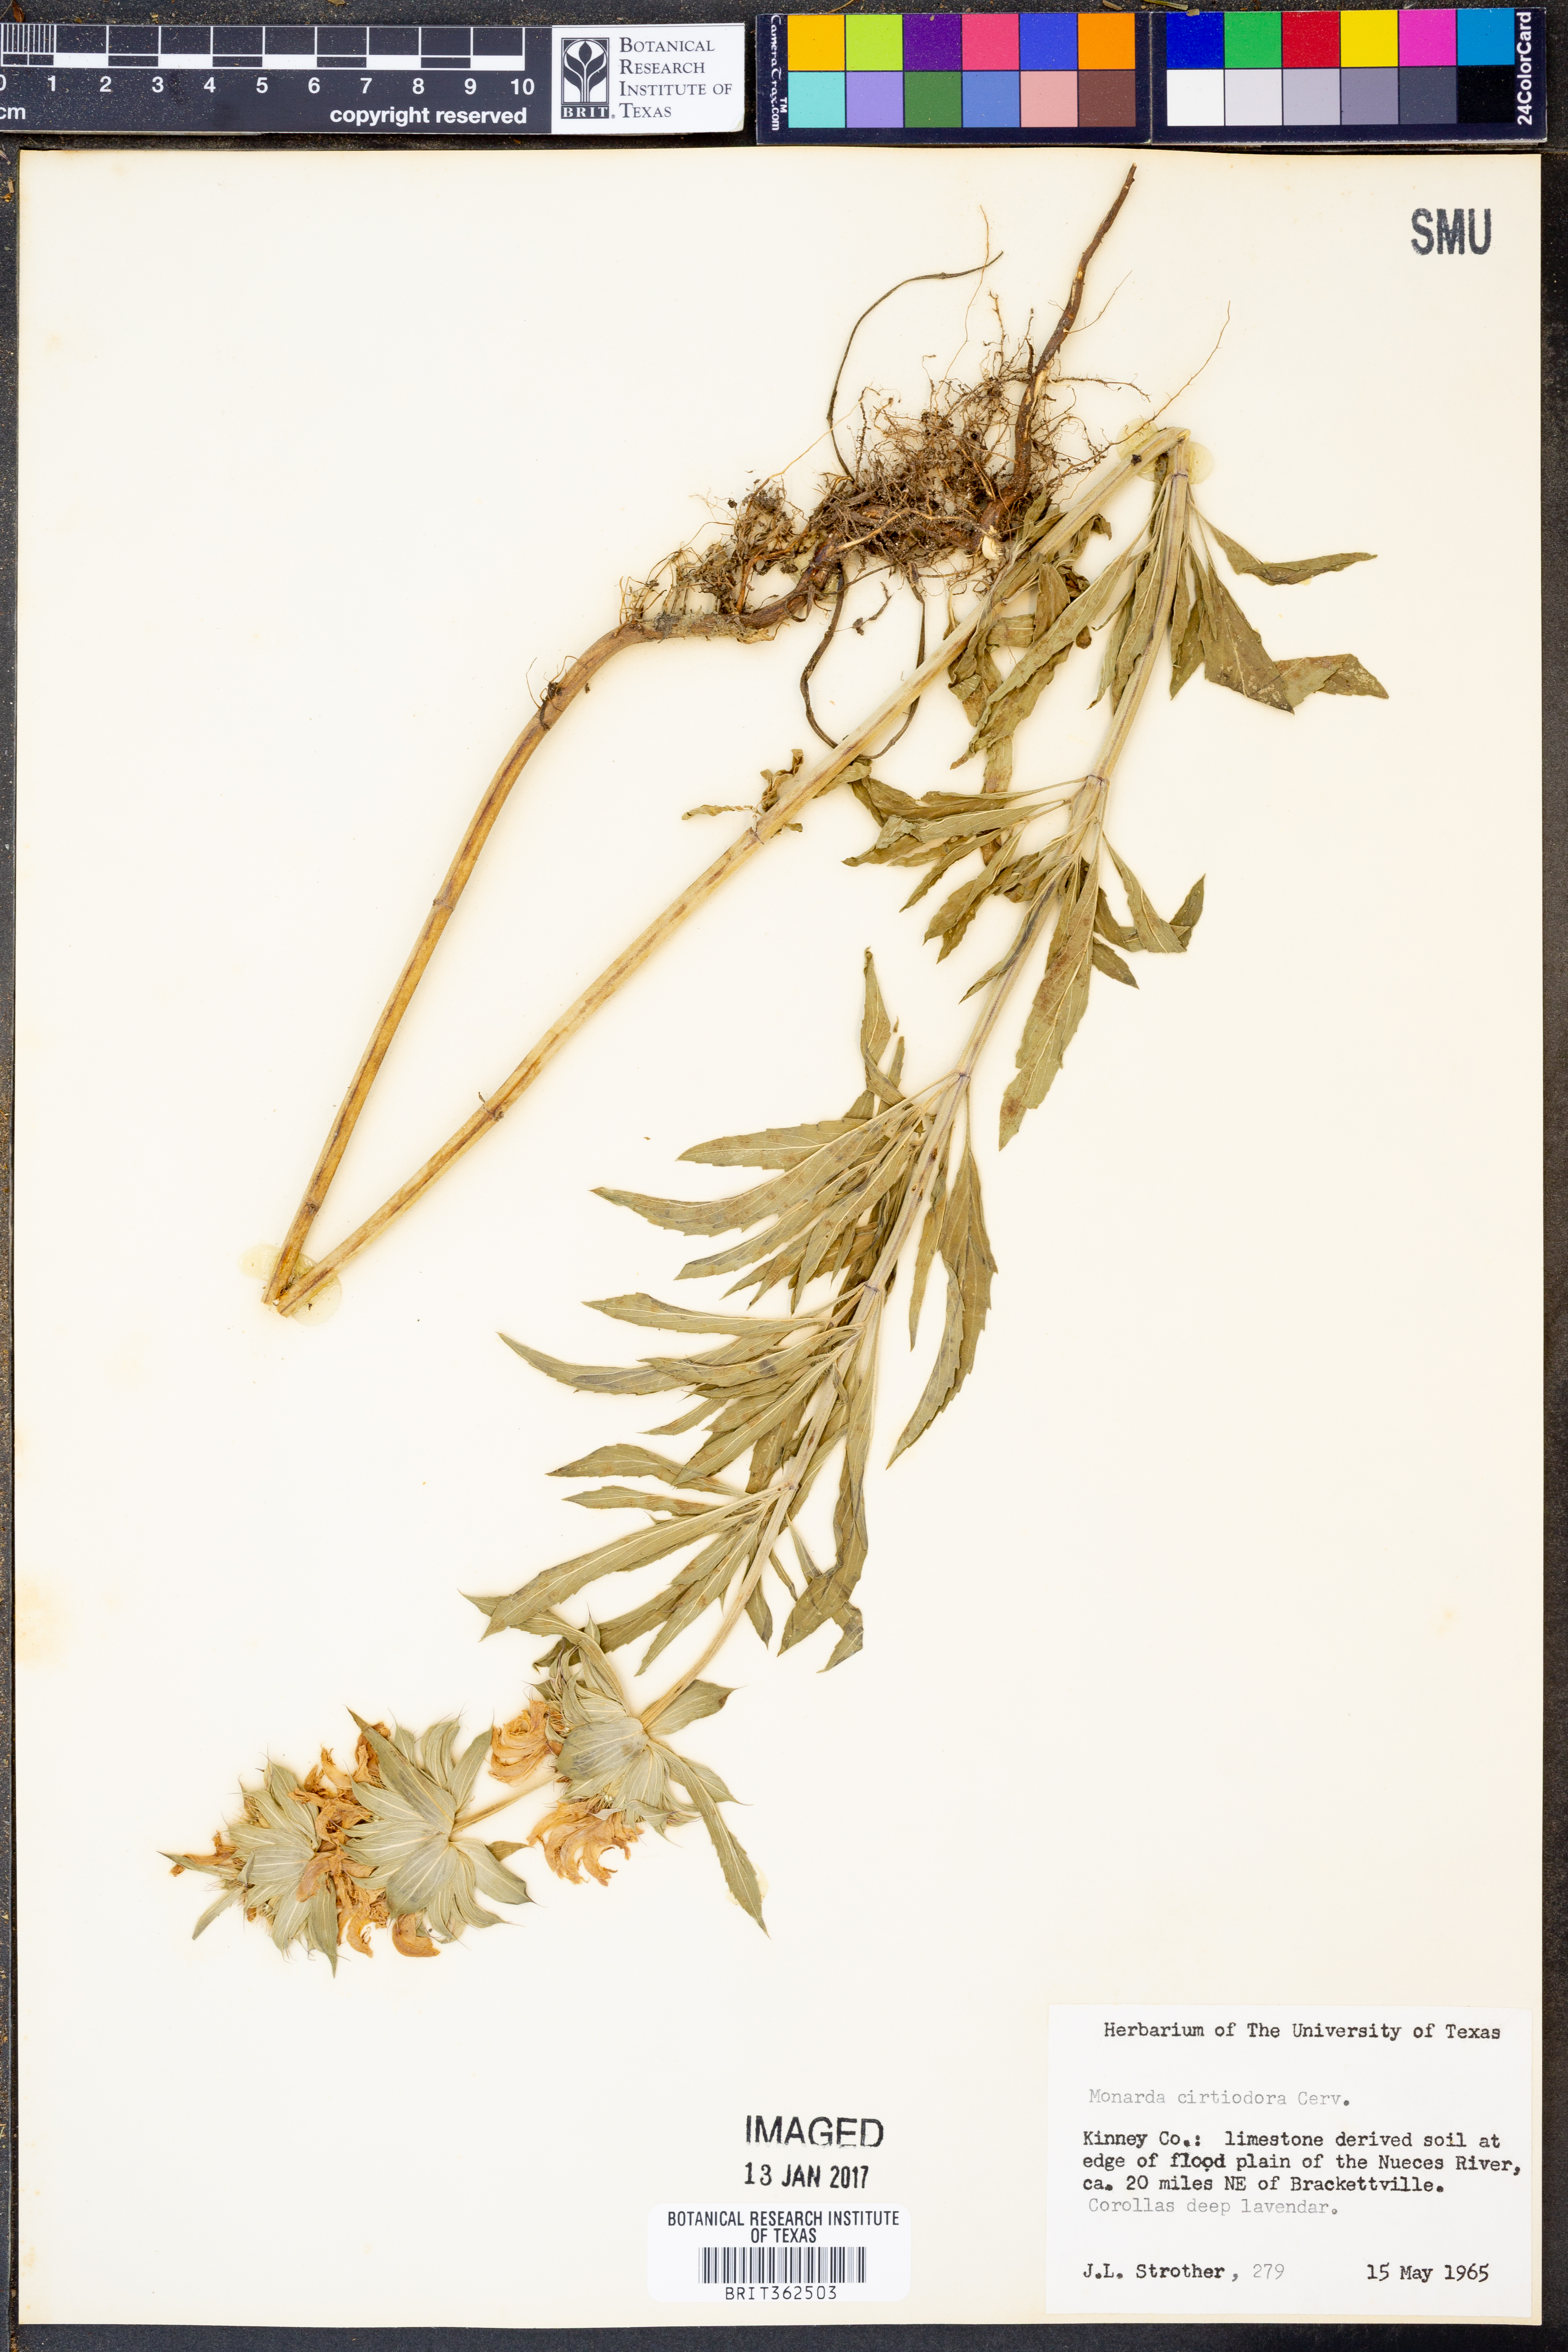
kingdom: Plantae
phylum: Tracheophyta
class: Magnoliopsida
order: Lamiales
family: Lamiaceae
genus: Monarda
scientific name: Monarda citriodora
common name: Lemon beebalm
